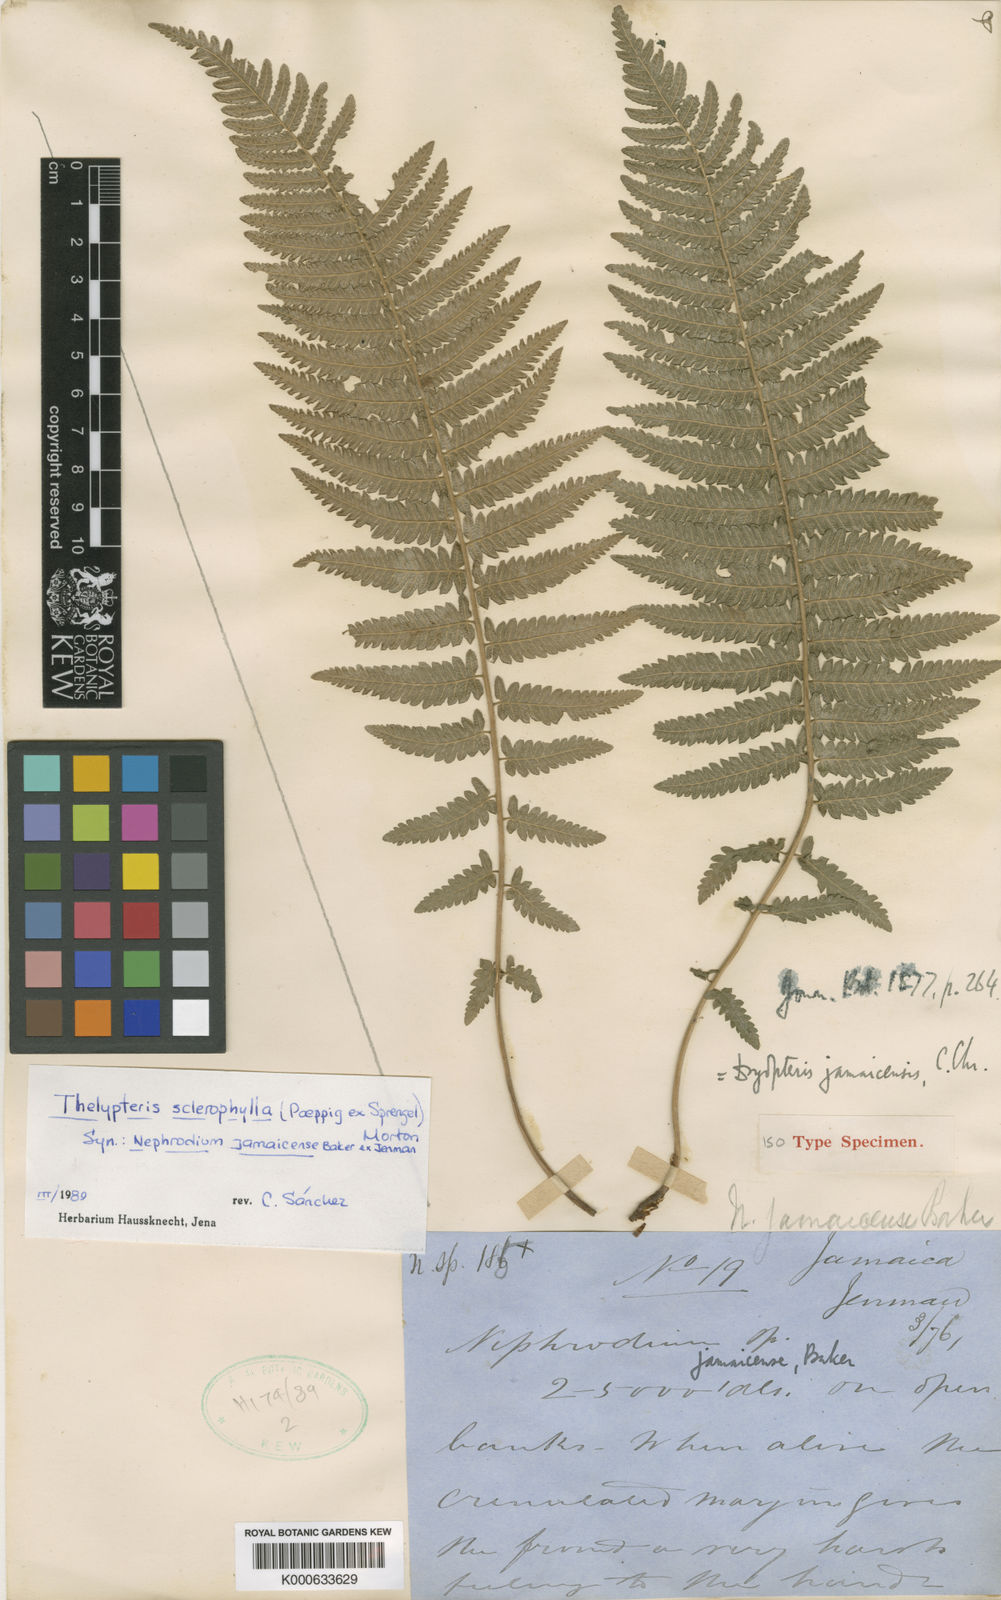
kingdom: Plantae
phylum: Tracheophyta
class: Polypodiopsida
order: Polypodiales
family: Thelypteridaceae
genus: Goniopteris
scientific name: Goniopteris
